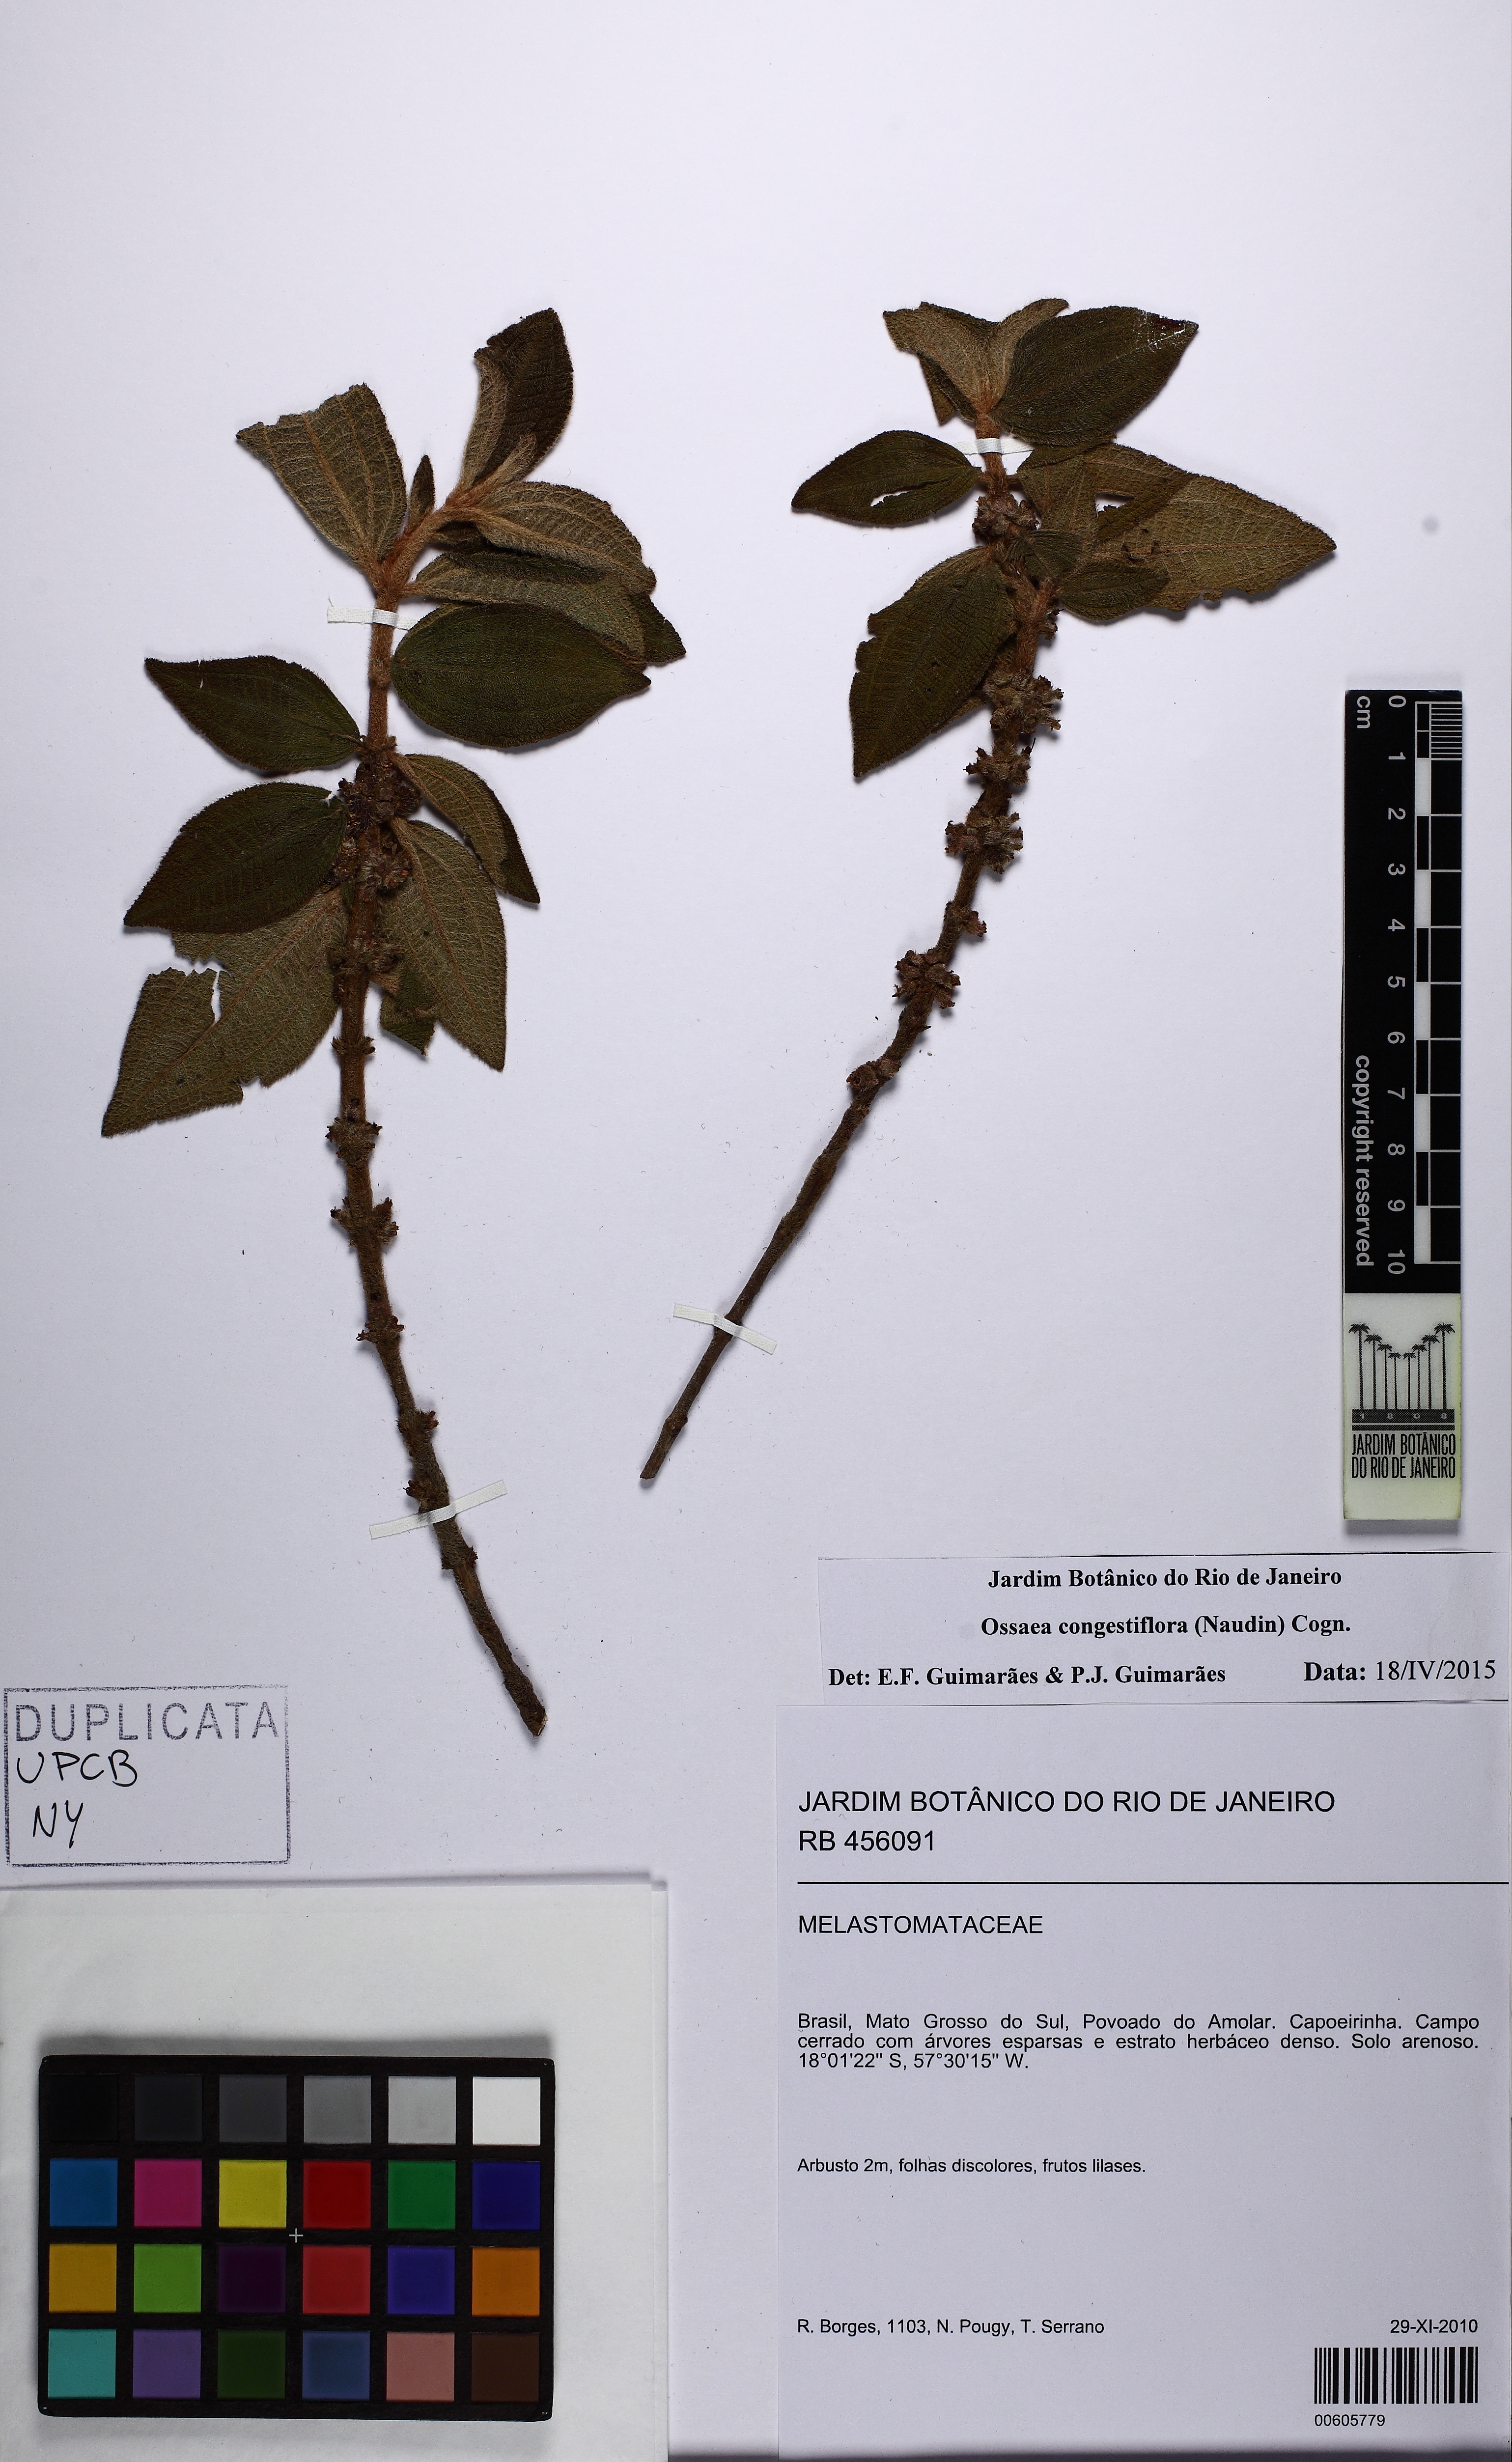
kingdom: Plantae
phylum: Tracheophyta
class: Magnoliopsida
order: Myrtales
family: Melastomataceae
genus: Miconia
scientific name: Miconia leacongestiflora
